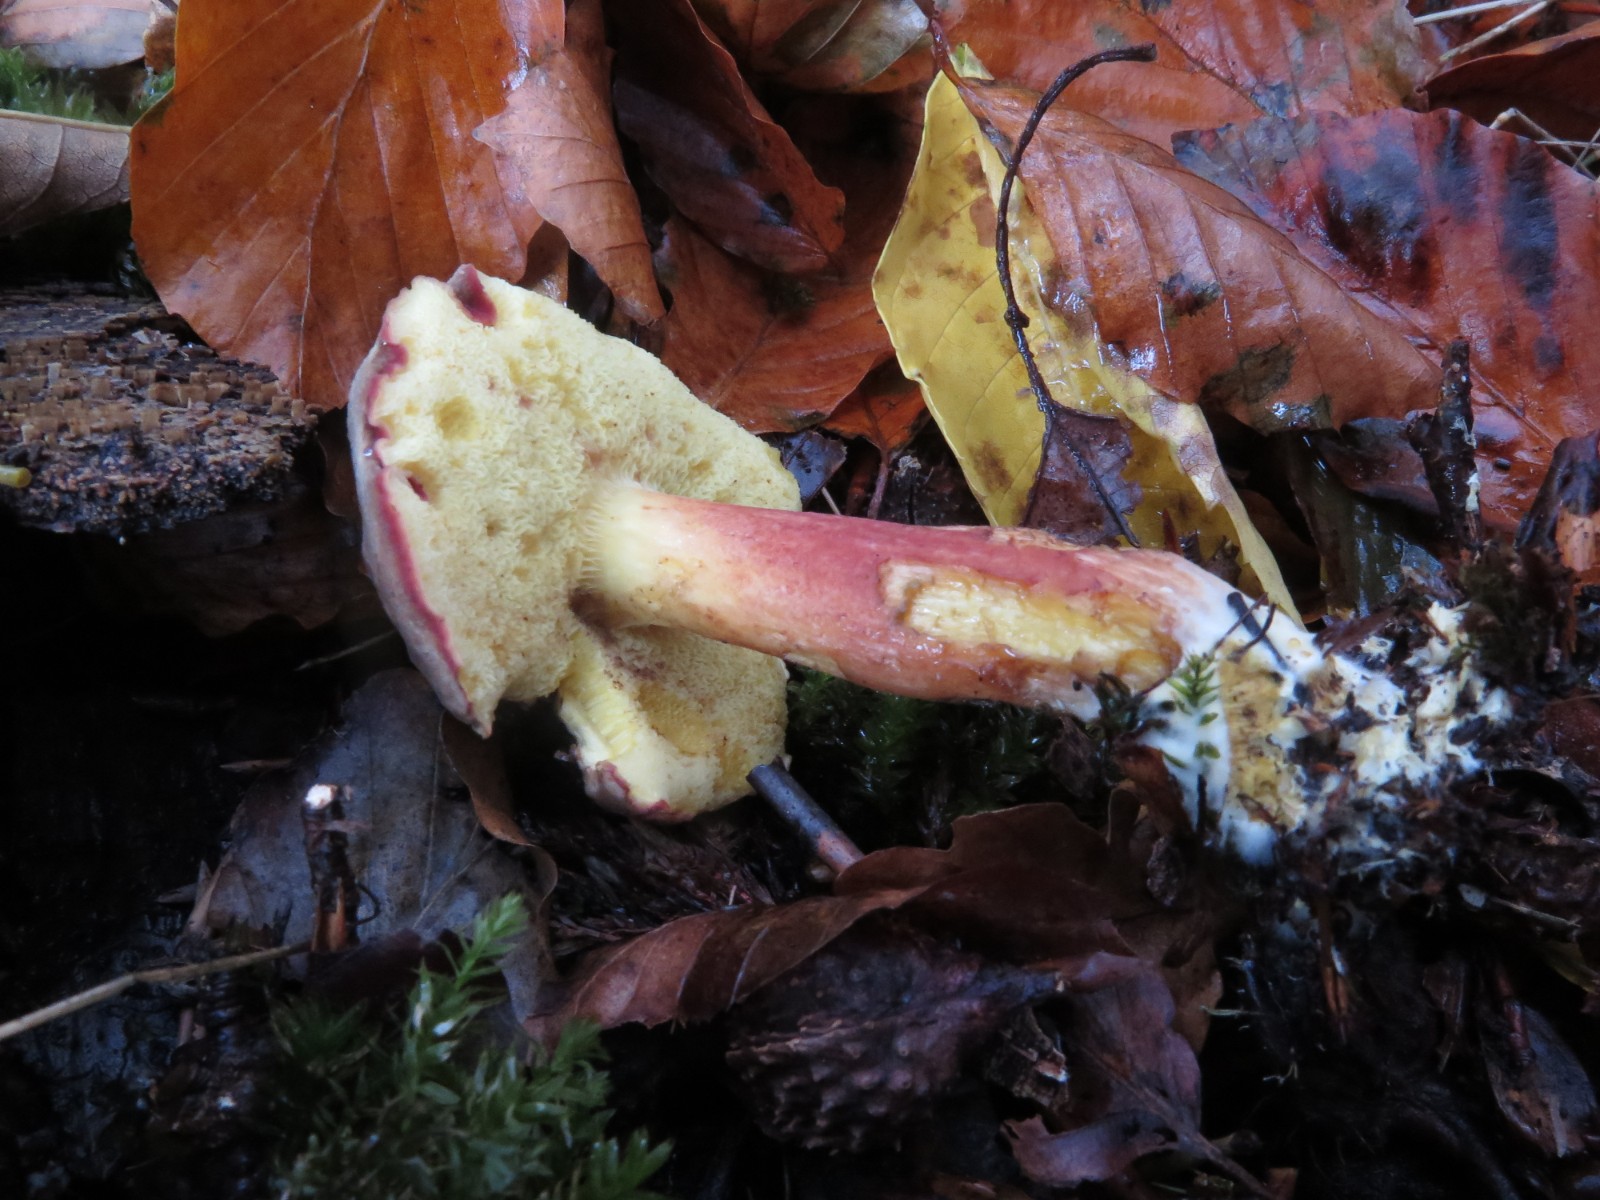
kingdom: Fungi
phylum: Basidiomycota
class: Agaricomycetes
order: Boletales
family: Boletaceae
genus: Xerocomellus
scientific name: Xerocomellus chrysenteron
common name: rødsprukken rørhat
